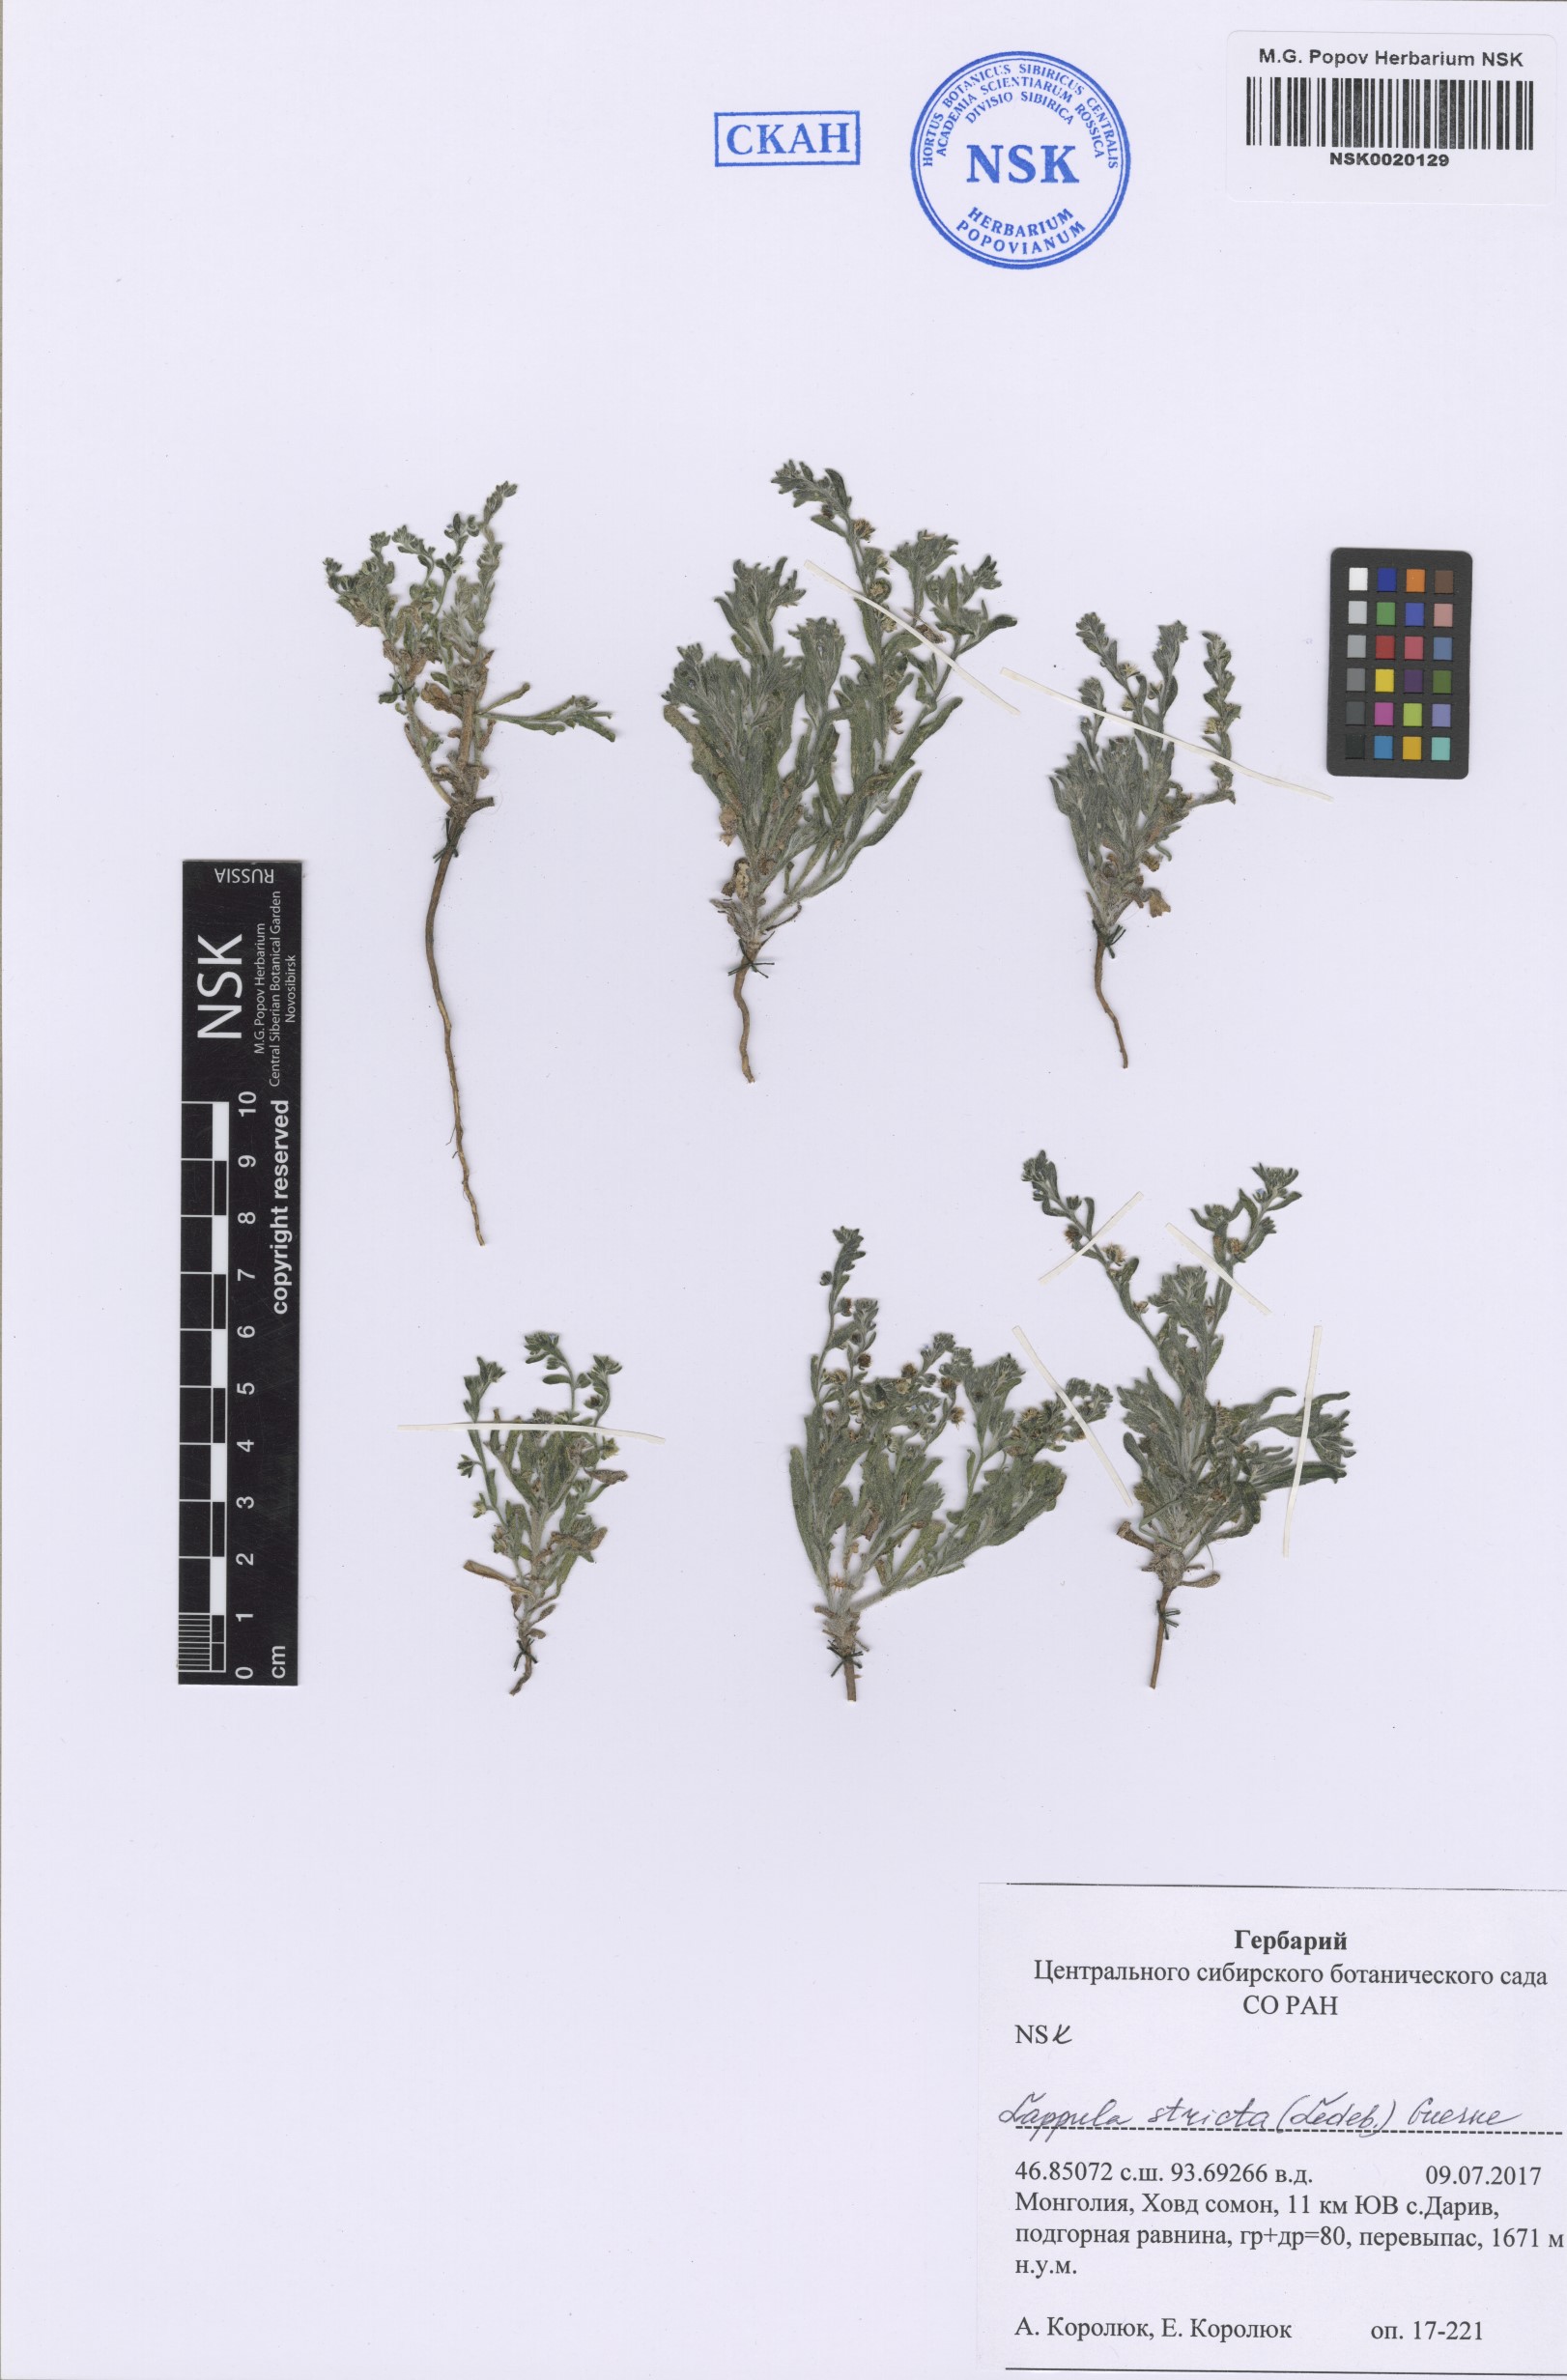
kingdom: Plantae
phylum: Tracheophyta
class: Magnoliopsida
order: Boraginales
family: Boraginaceae
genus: Lappula
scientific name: Lappula stricta
